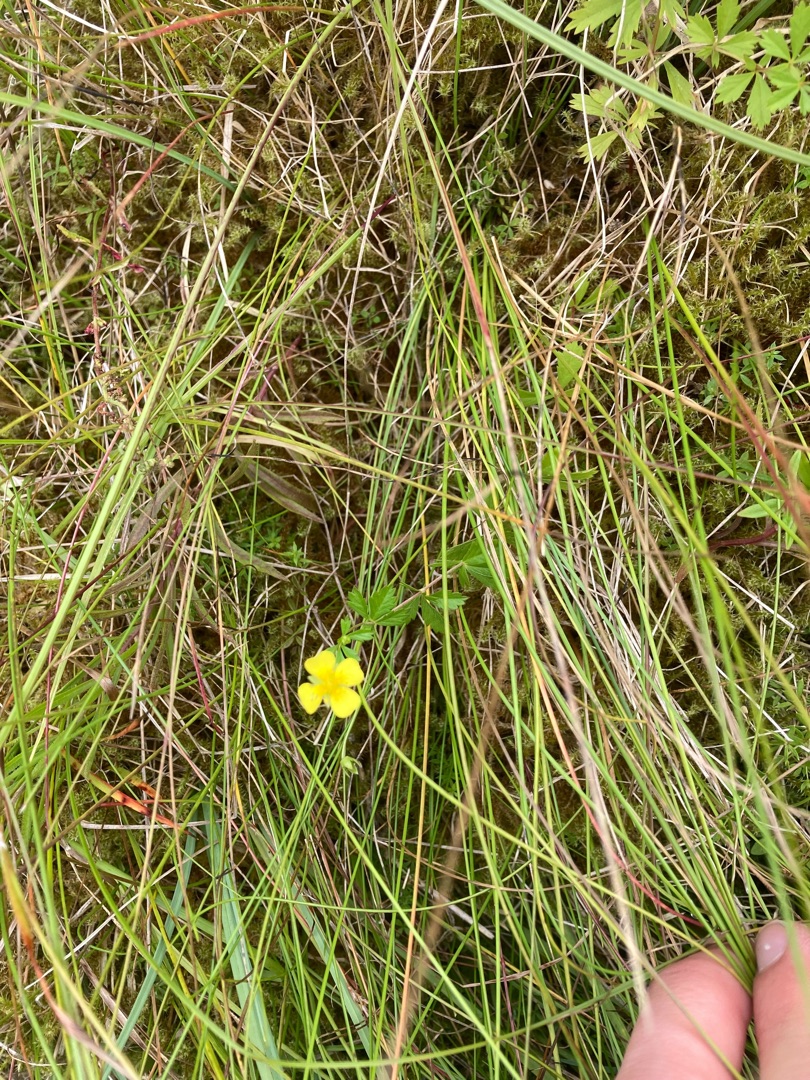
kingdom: Plantae
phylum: Tracheophyta
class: Magnoliopsida
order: Rosales
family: Rosaceae
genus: Potentilla
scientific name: Potentilla erecta
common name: Tormentil
